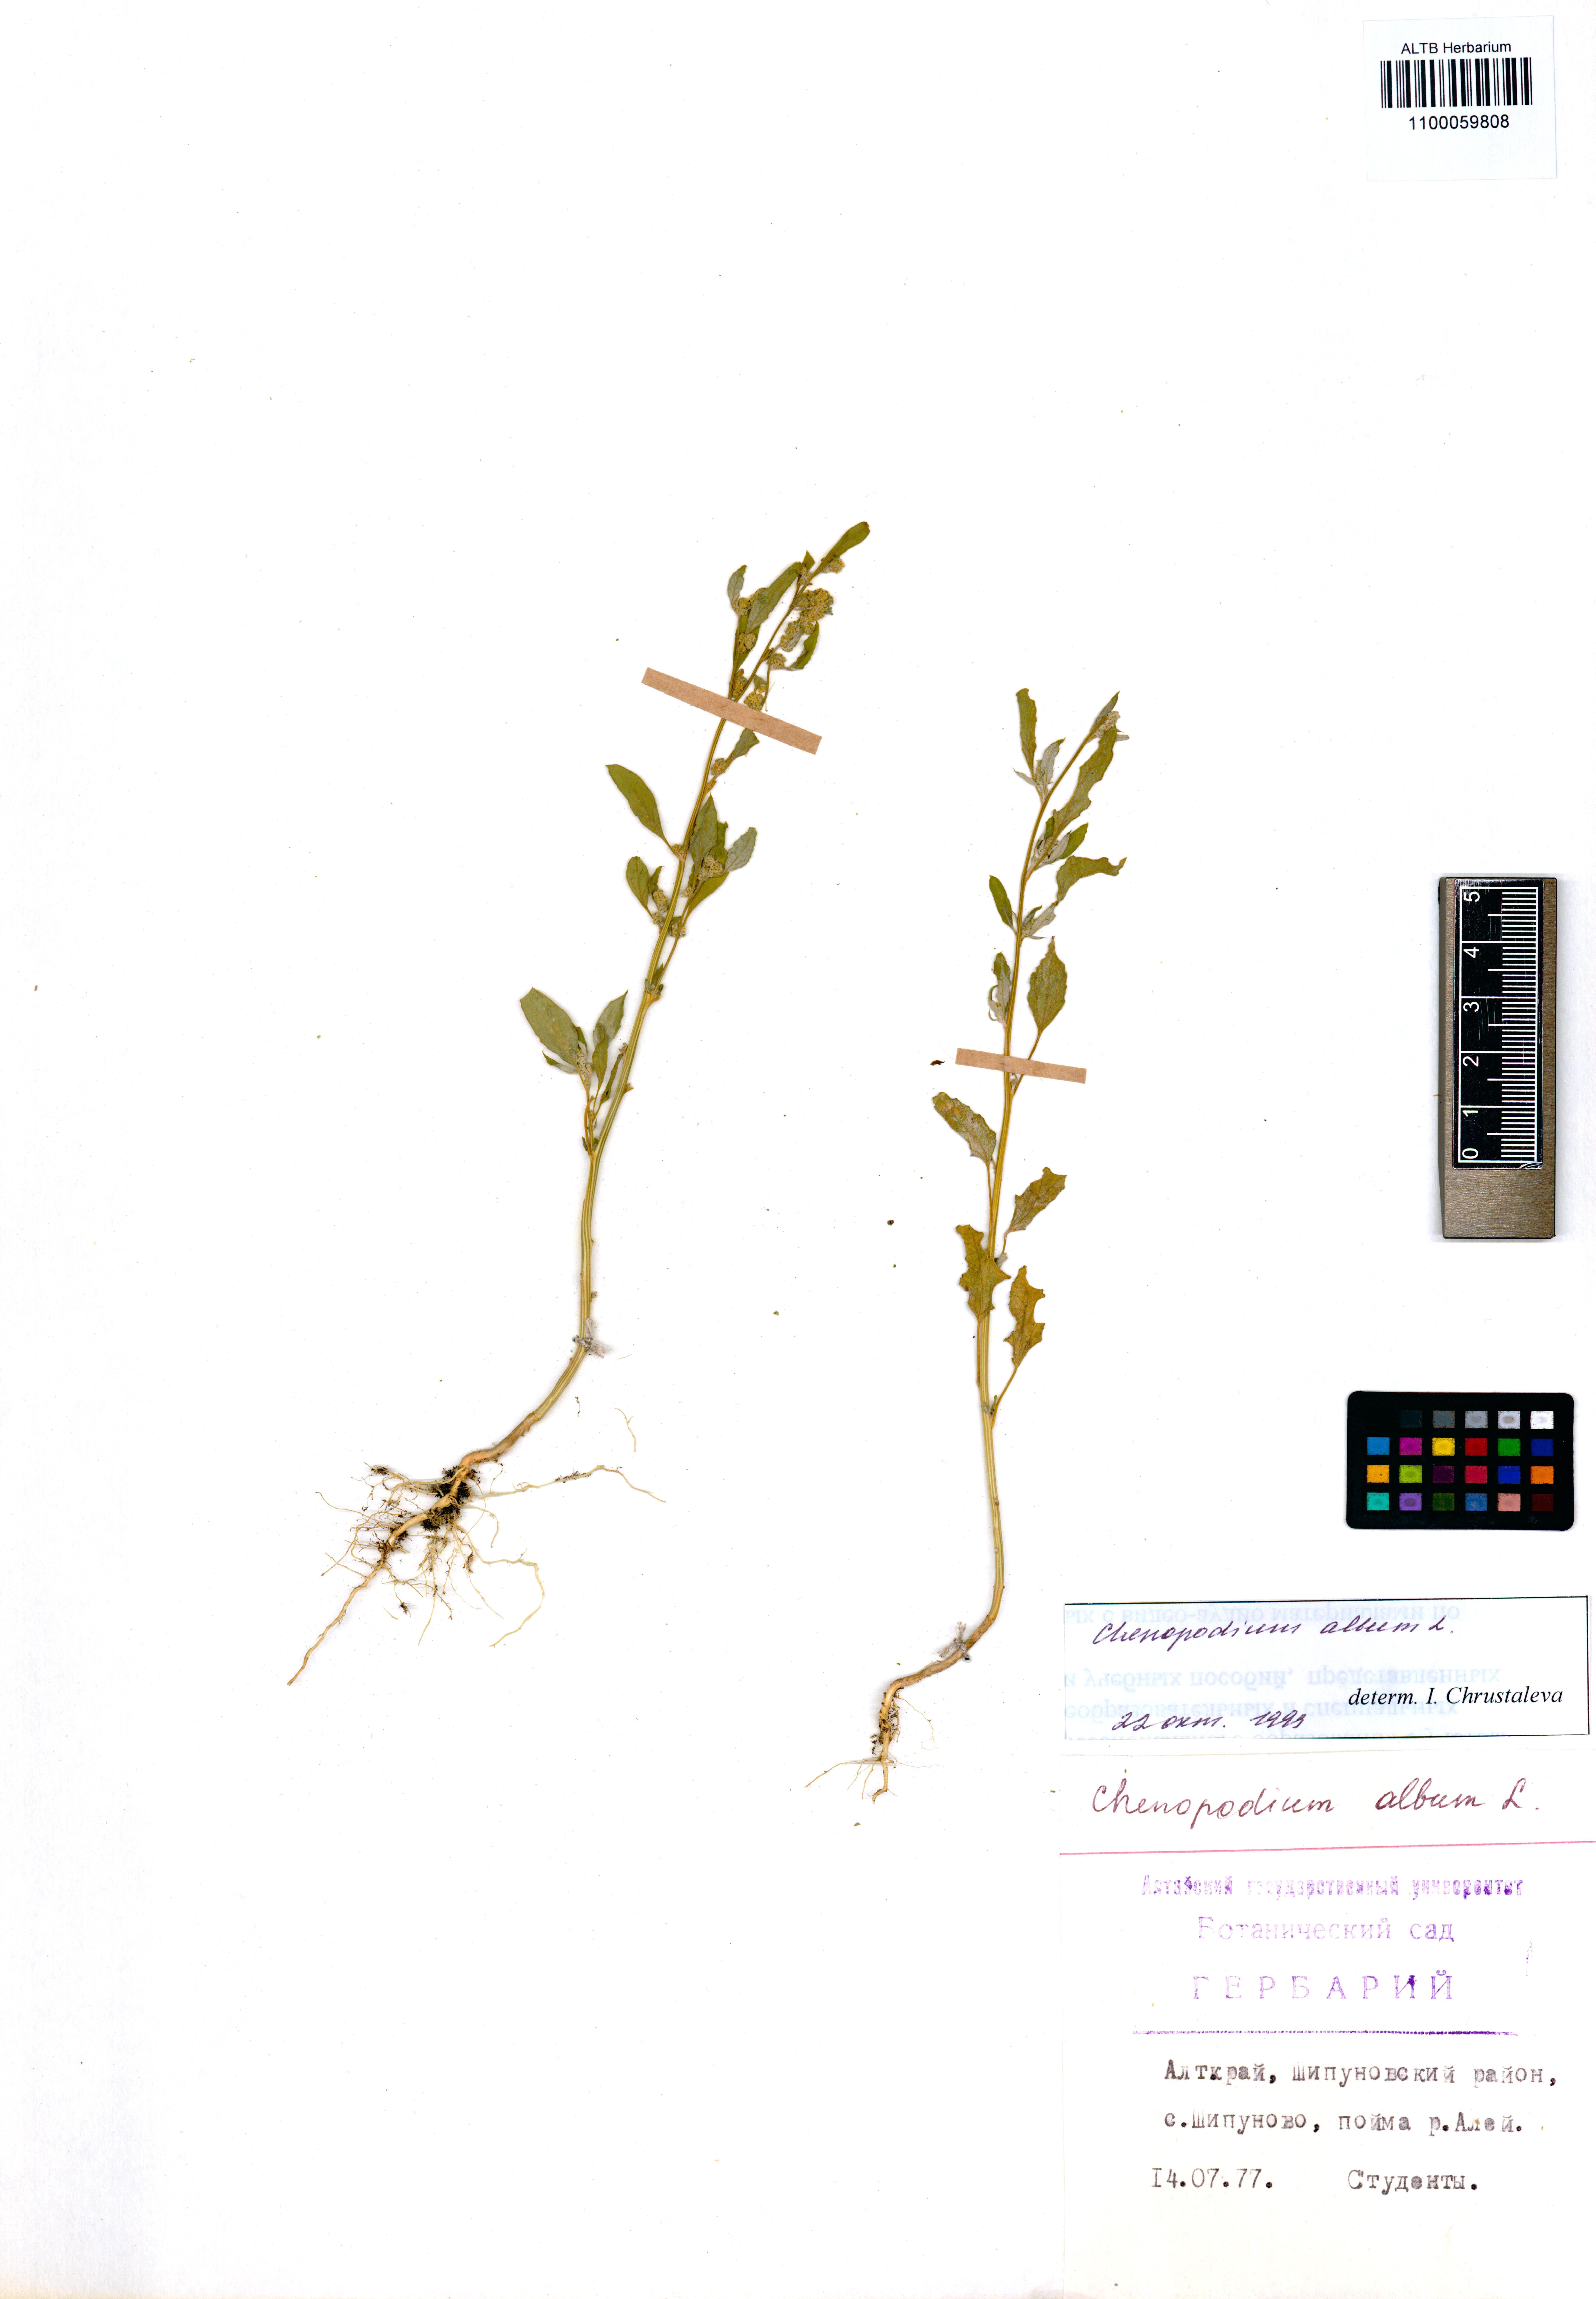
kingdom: Plantae
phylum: Tracheophyta
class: Magnoliopsida
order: Caryophyllales
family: Amaranthaceae
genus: Chenopodium
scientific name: Chenopodium album
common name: Fat-hen
